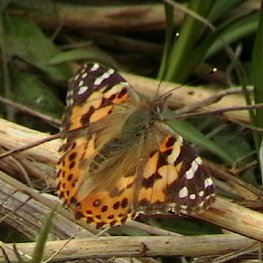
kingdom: Animalia
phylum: Arthropoda
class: Insecta
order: Lepidoptera
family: Nymphalidae
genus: Vanessa
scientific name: Vanessa cardui
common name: Painted Lady
